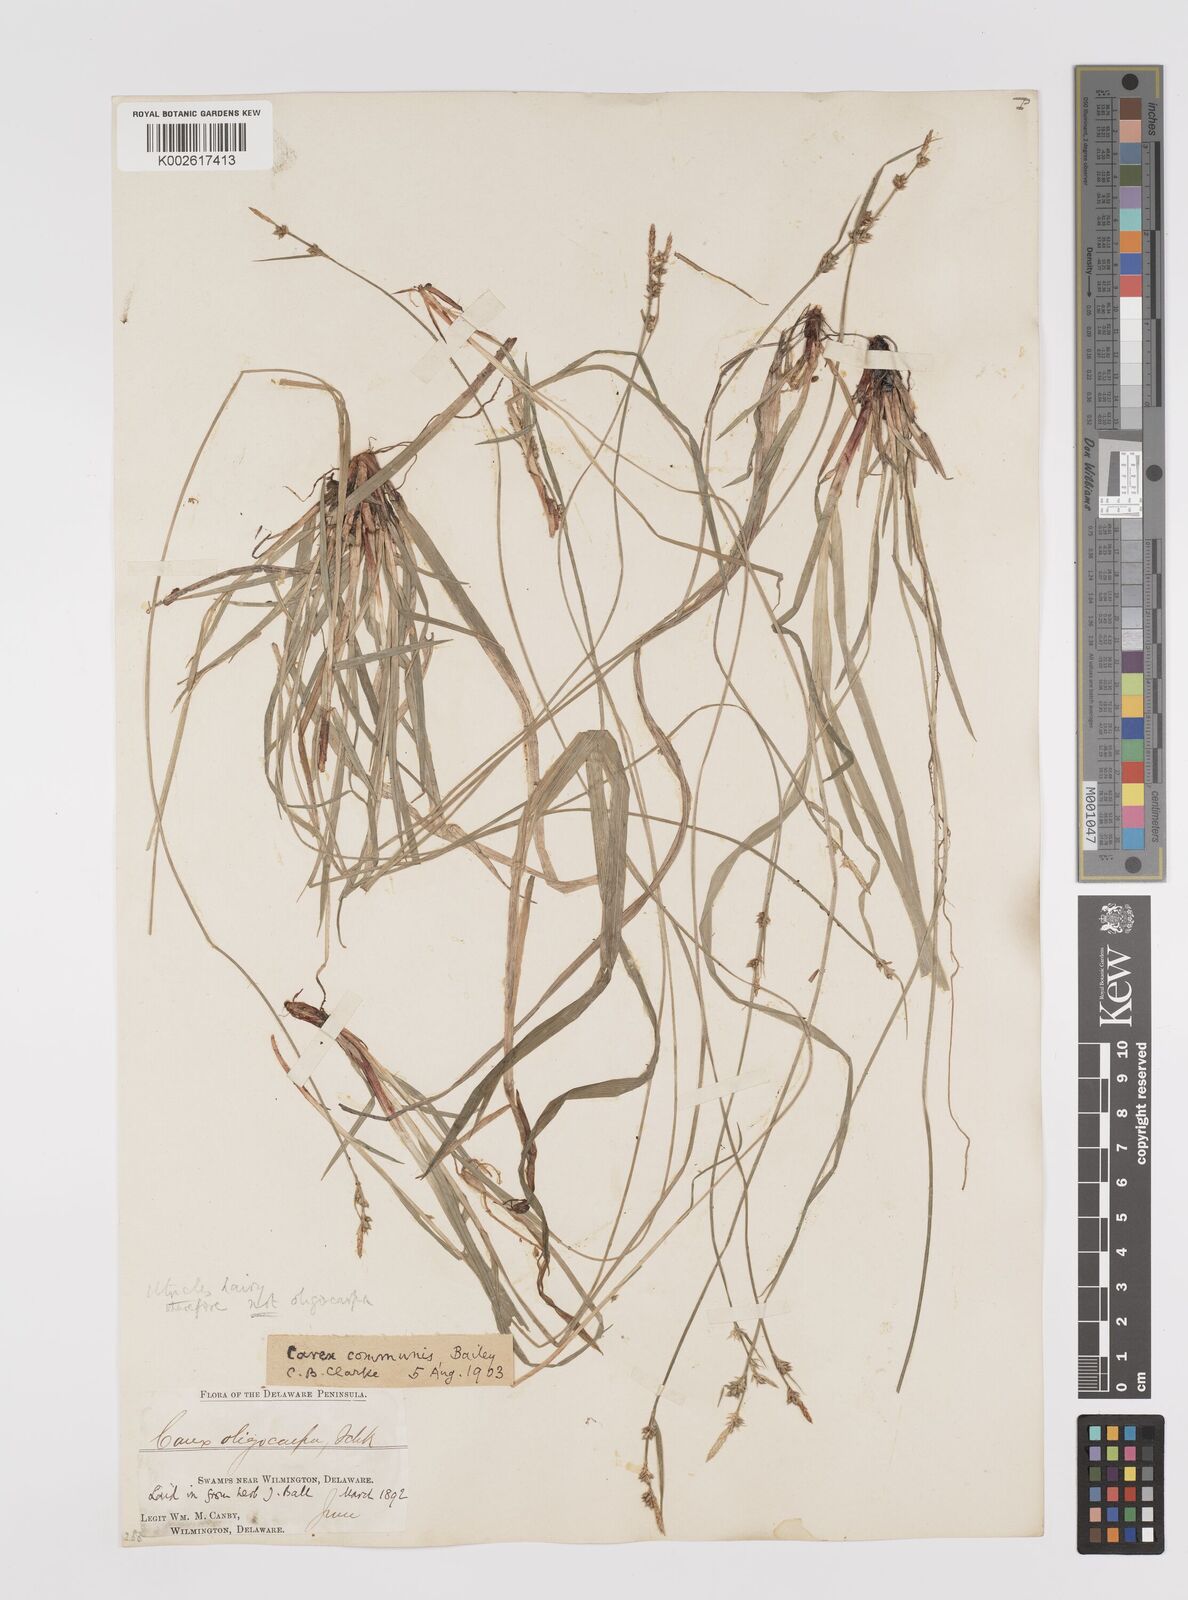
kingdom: Plantae
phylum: Tracheophyta
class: Liliopsida
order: Poales
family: Cyperaceae
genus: Carex
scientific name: Carex communis
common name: Colonial oak sedge
